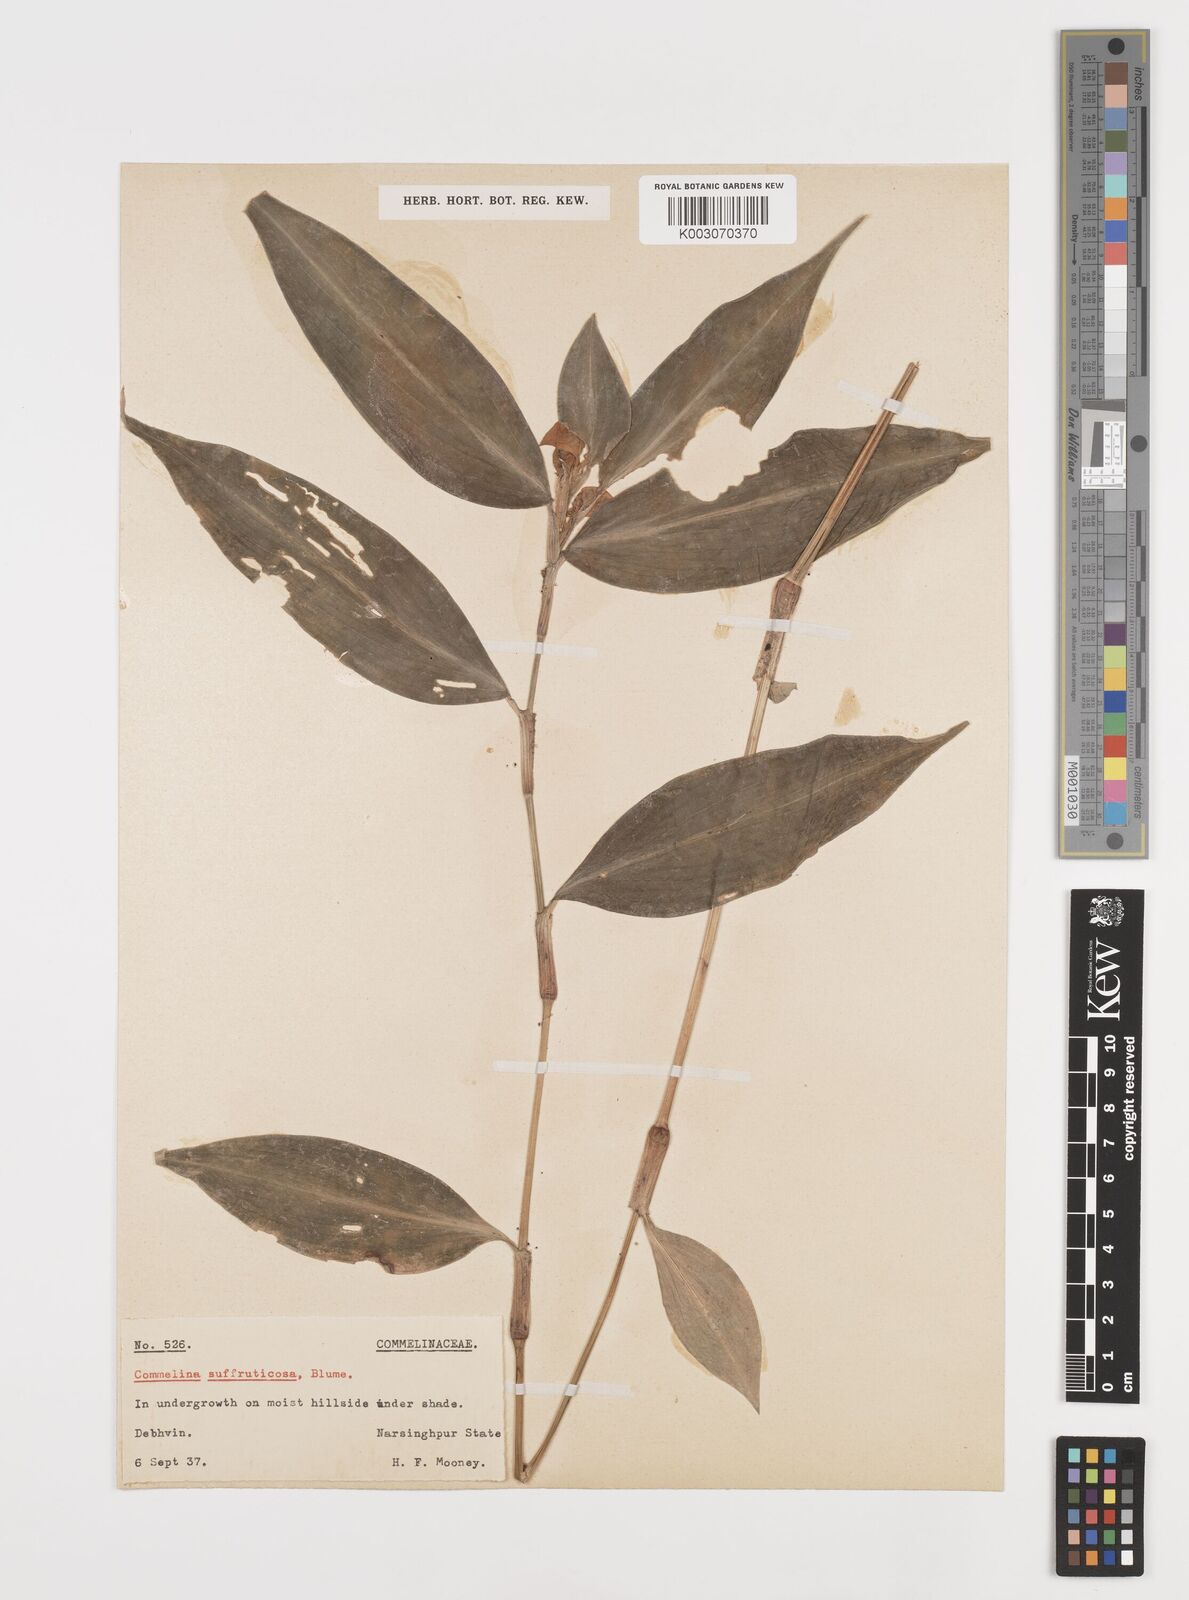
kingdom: Plantae
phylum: Tracheophyta
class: Liliopsida
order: Commelinales
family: Commelinaceae
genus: Commelina
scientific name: Commelina suffruticosa
